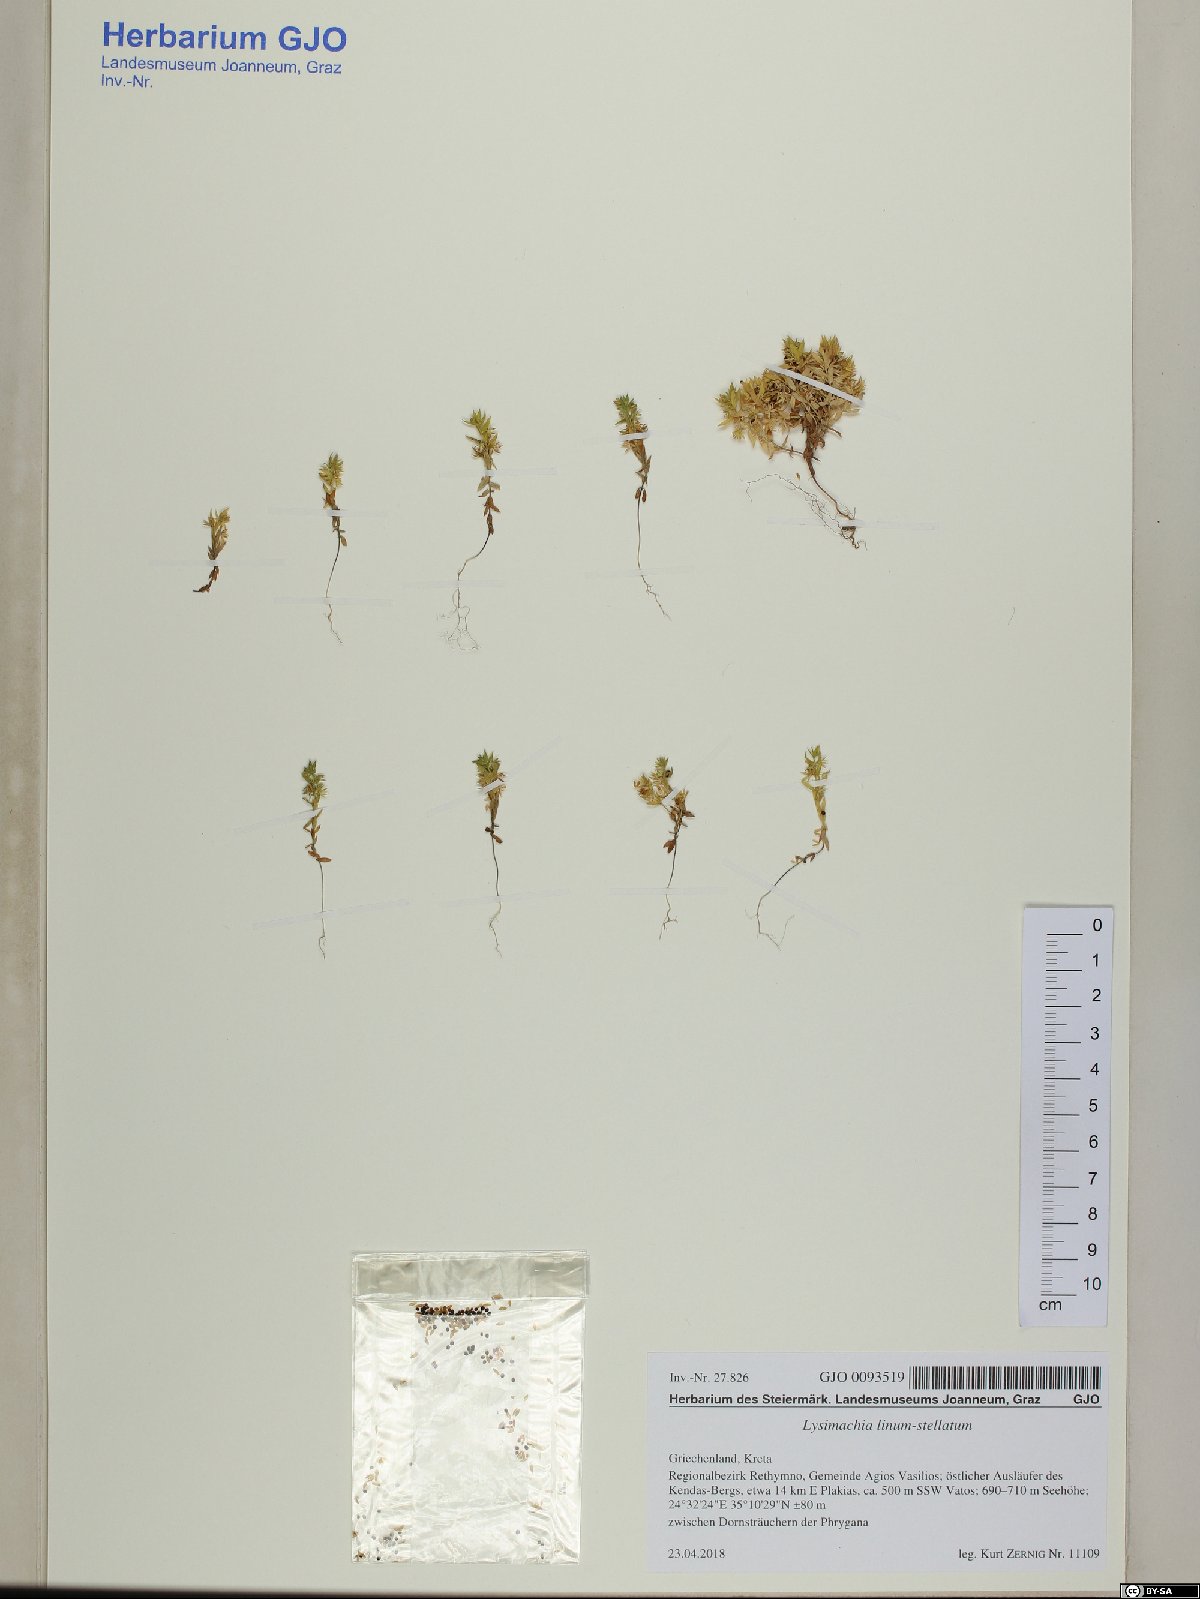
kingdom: Plantae
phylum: Tracheophyta
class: Magnoliopsida
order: Ericales
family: Primulaceae
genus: Lysimachia
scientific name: Lysimachia linum-stellatum
